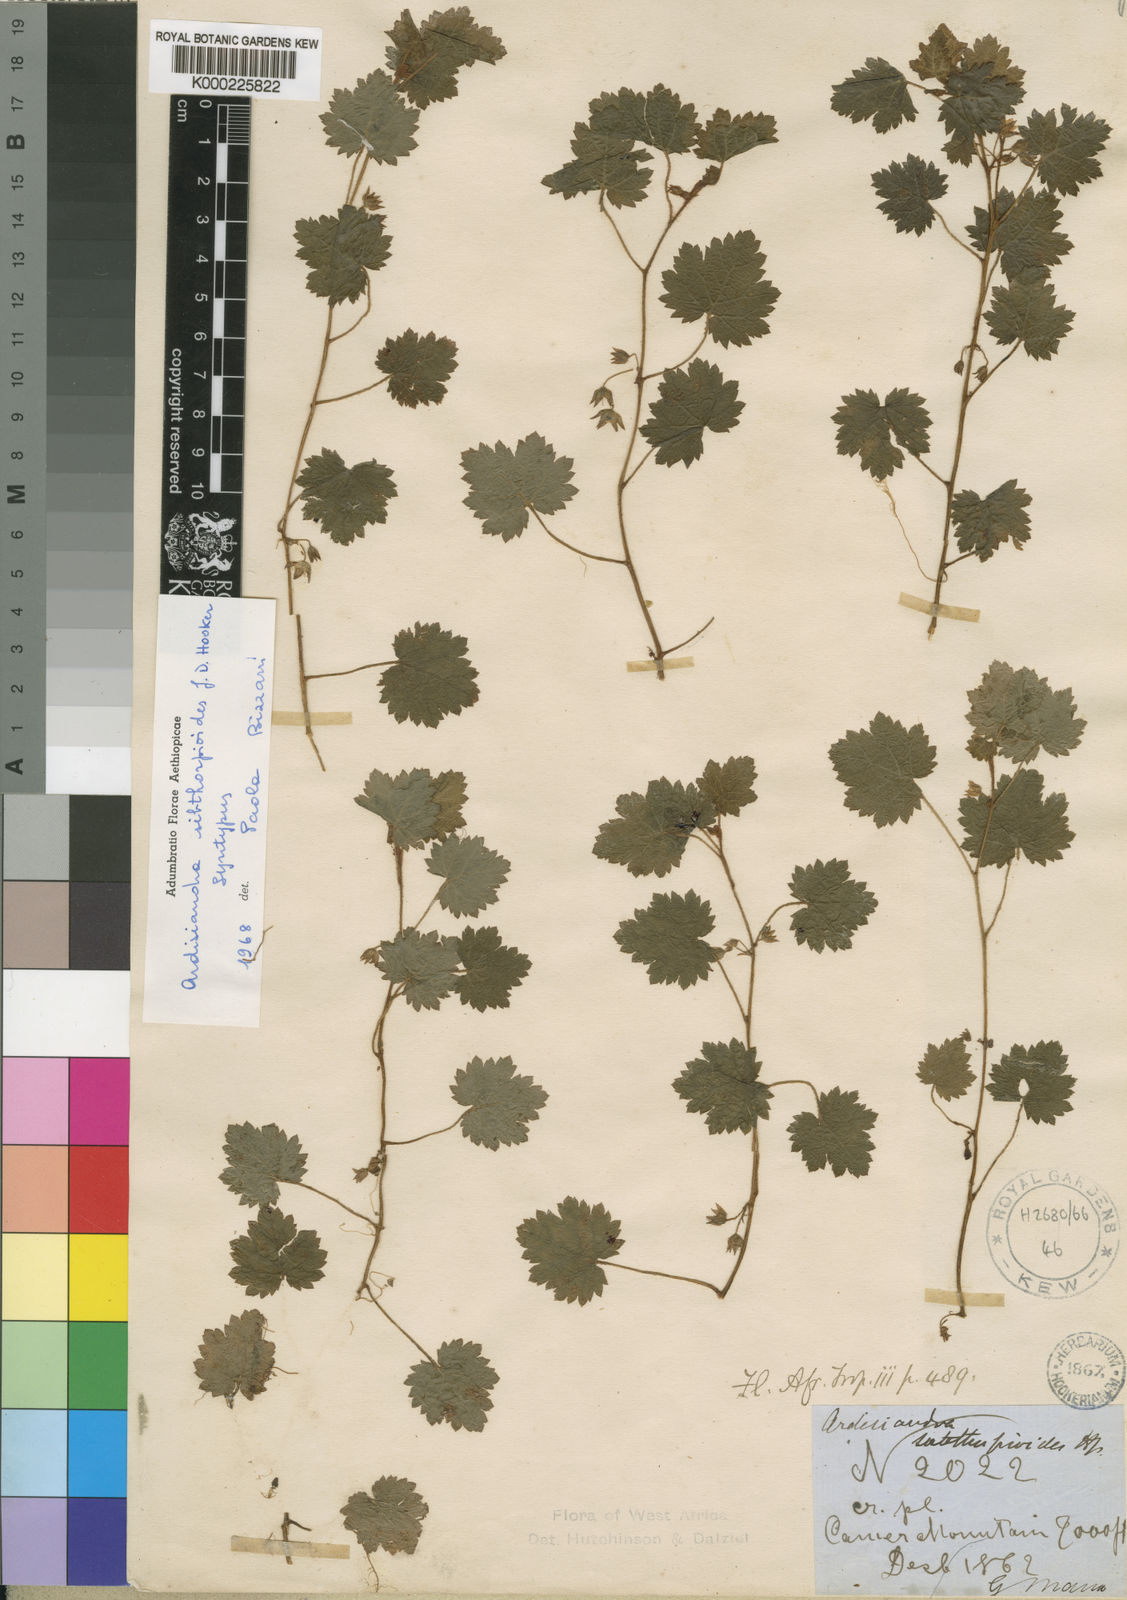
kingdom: Plantae
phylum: Tracheophyta
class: Magnoliopsida
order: Ericales
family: Primulaceae
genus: Ardisiandra
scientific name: Ardisiandra sibthorpioides
